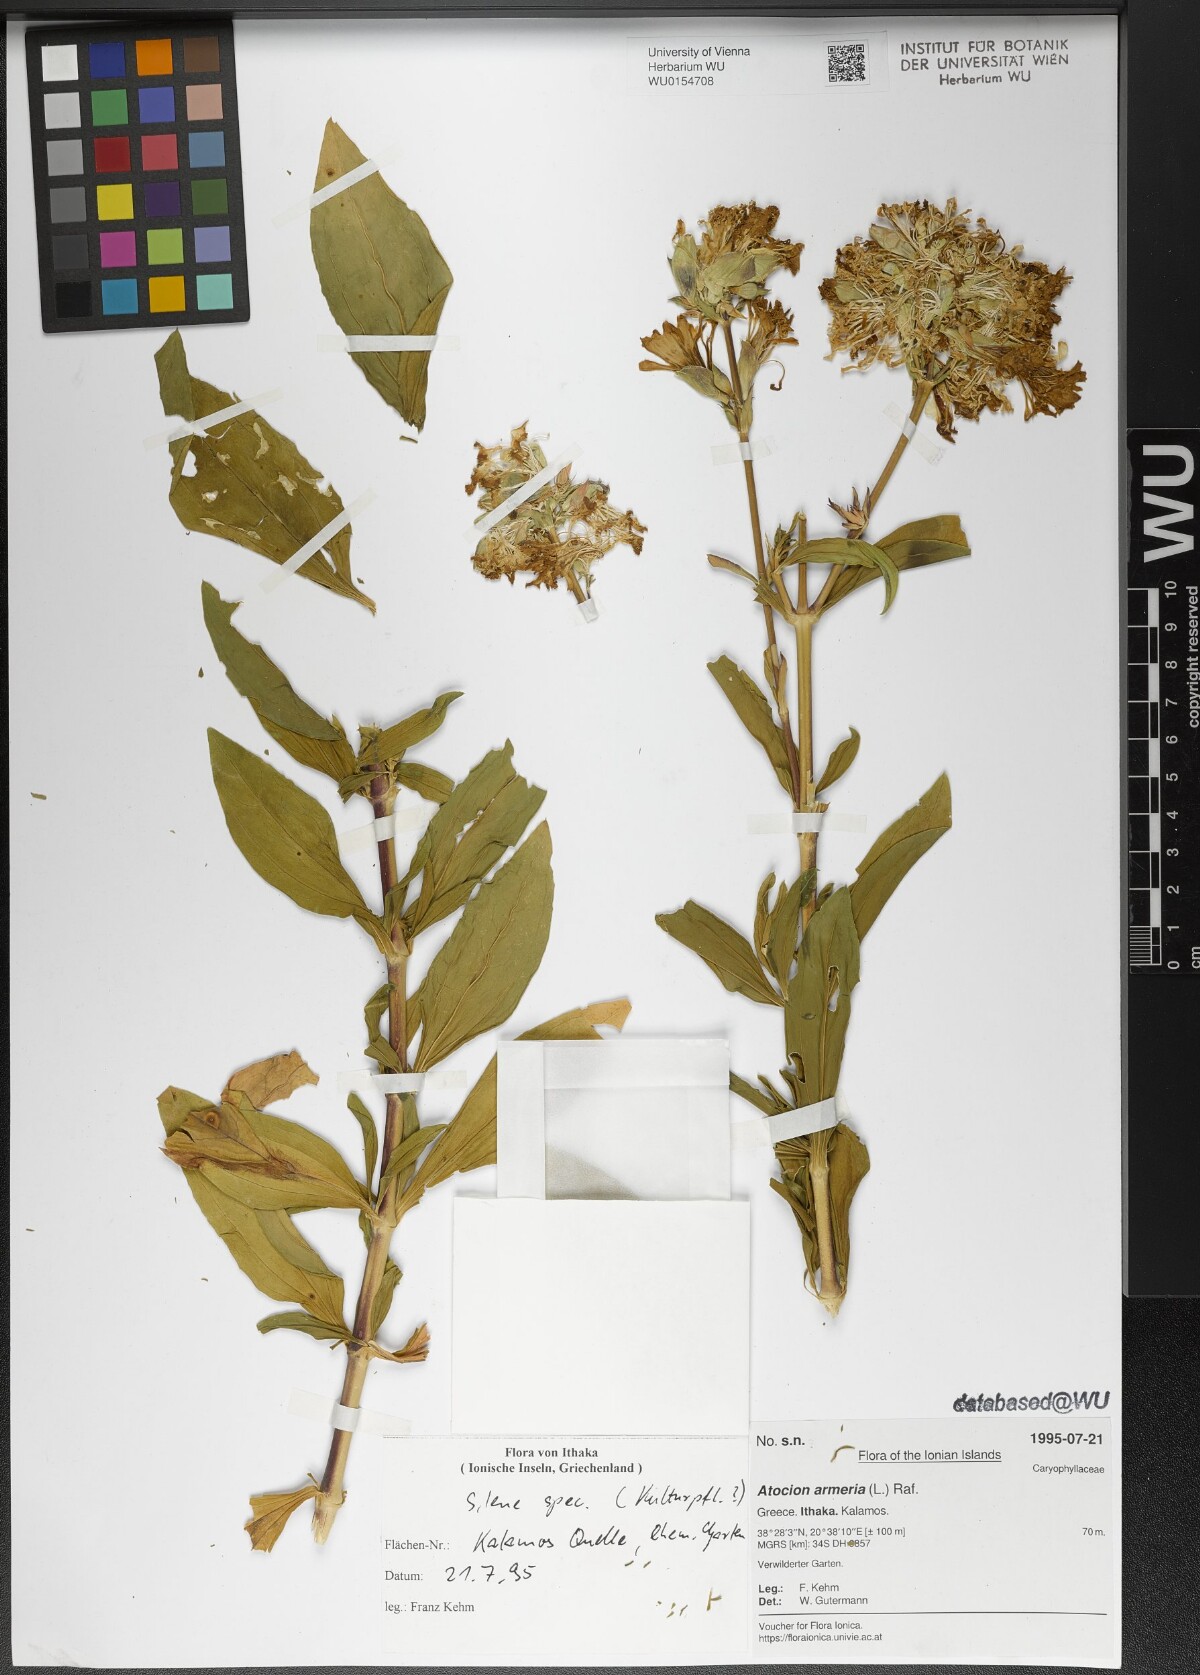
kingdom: Plantae
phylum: Tracheophyta
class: Magnoliopsida
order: Caryophyllales
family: Caryophyllaceae
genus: Atocion
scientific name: Atocion armeria
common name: Sweet william catchfly
